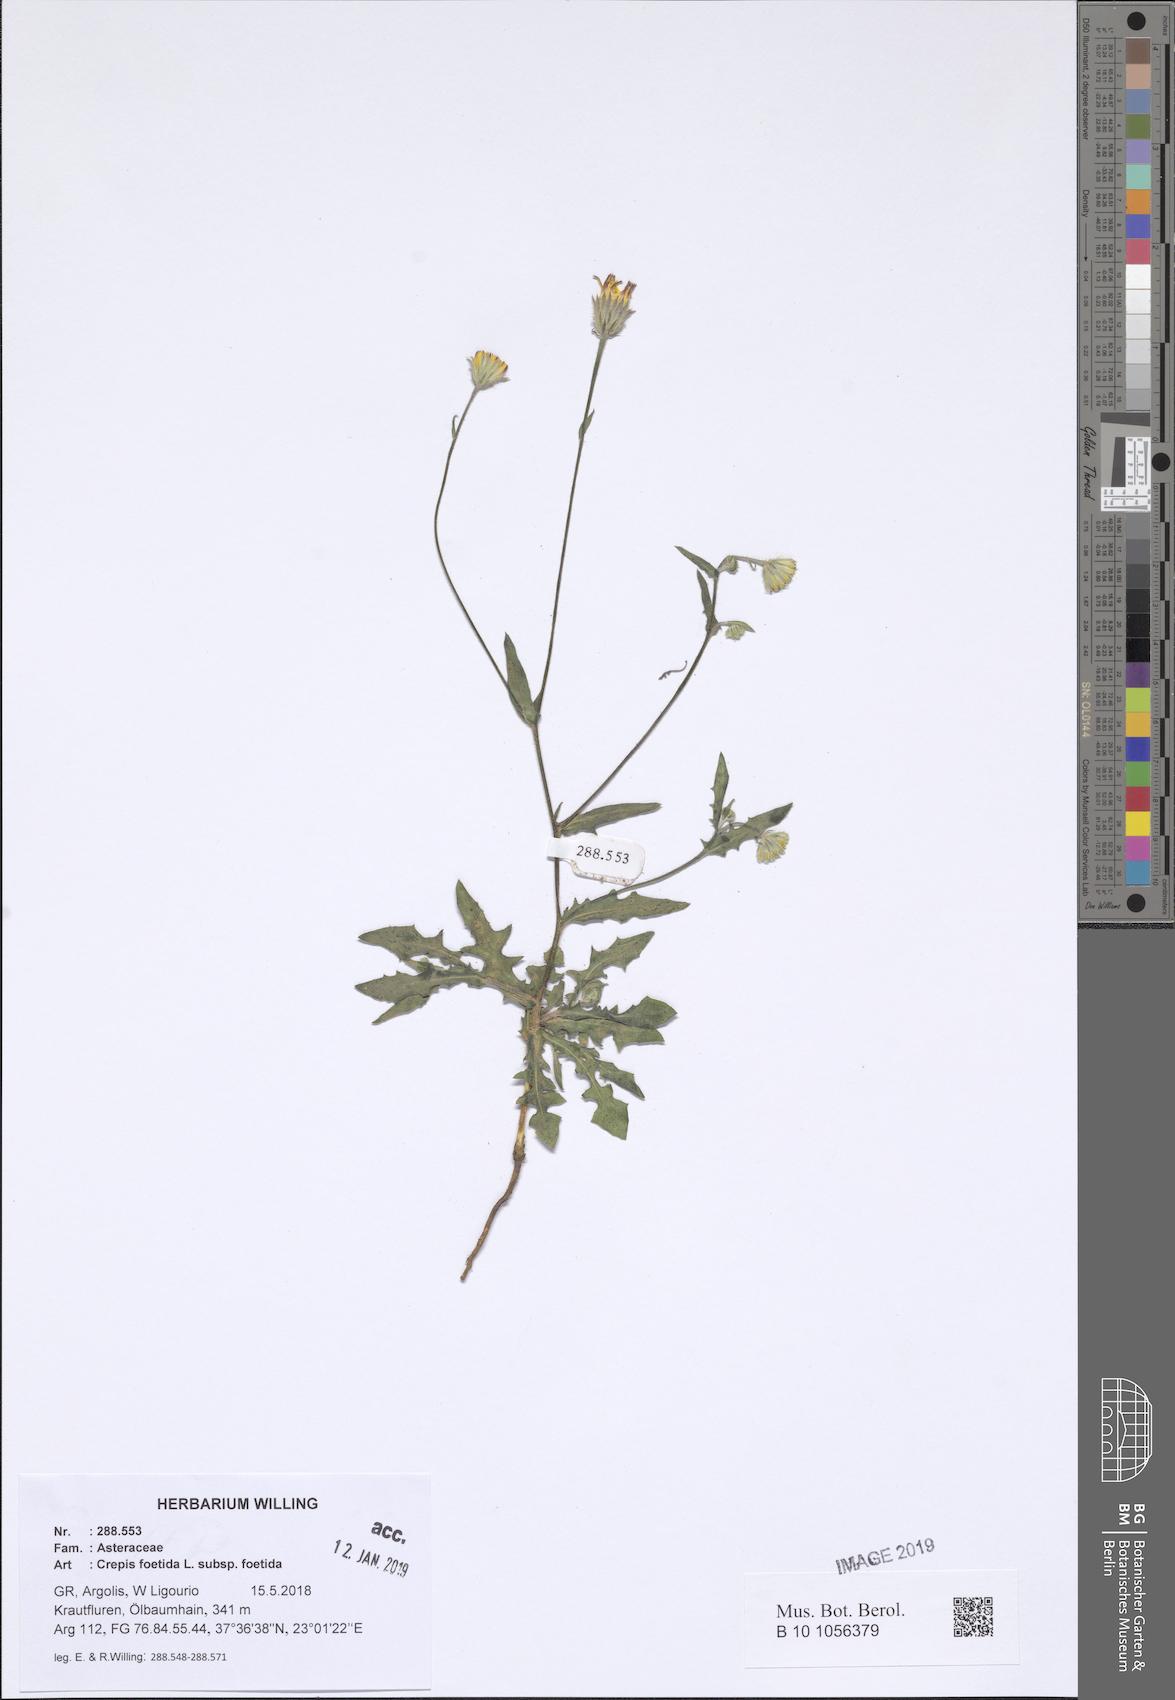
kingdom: Plantae
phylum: Tracheophyta
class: Magnoliopsida
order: Asterales
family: Asteraceae
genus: Crepis
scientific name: Crepis foetida
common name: Stinking hawk's-beard
